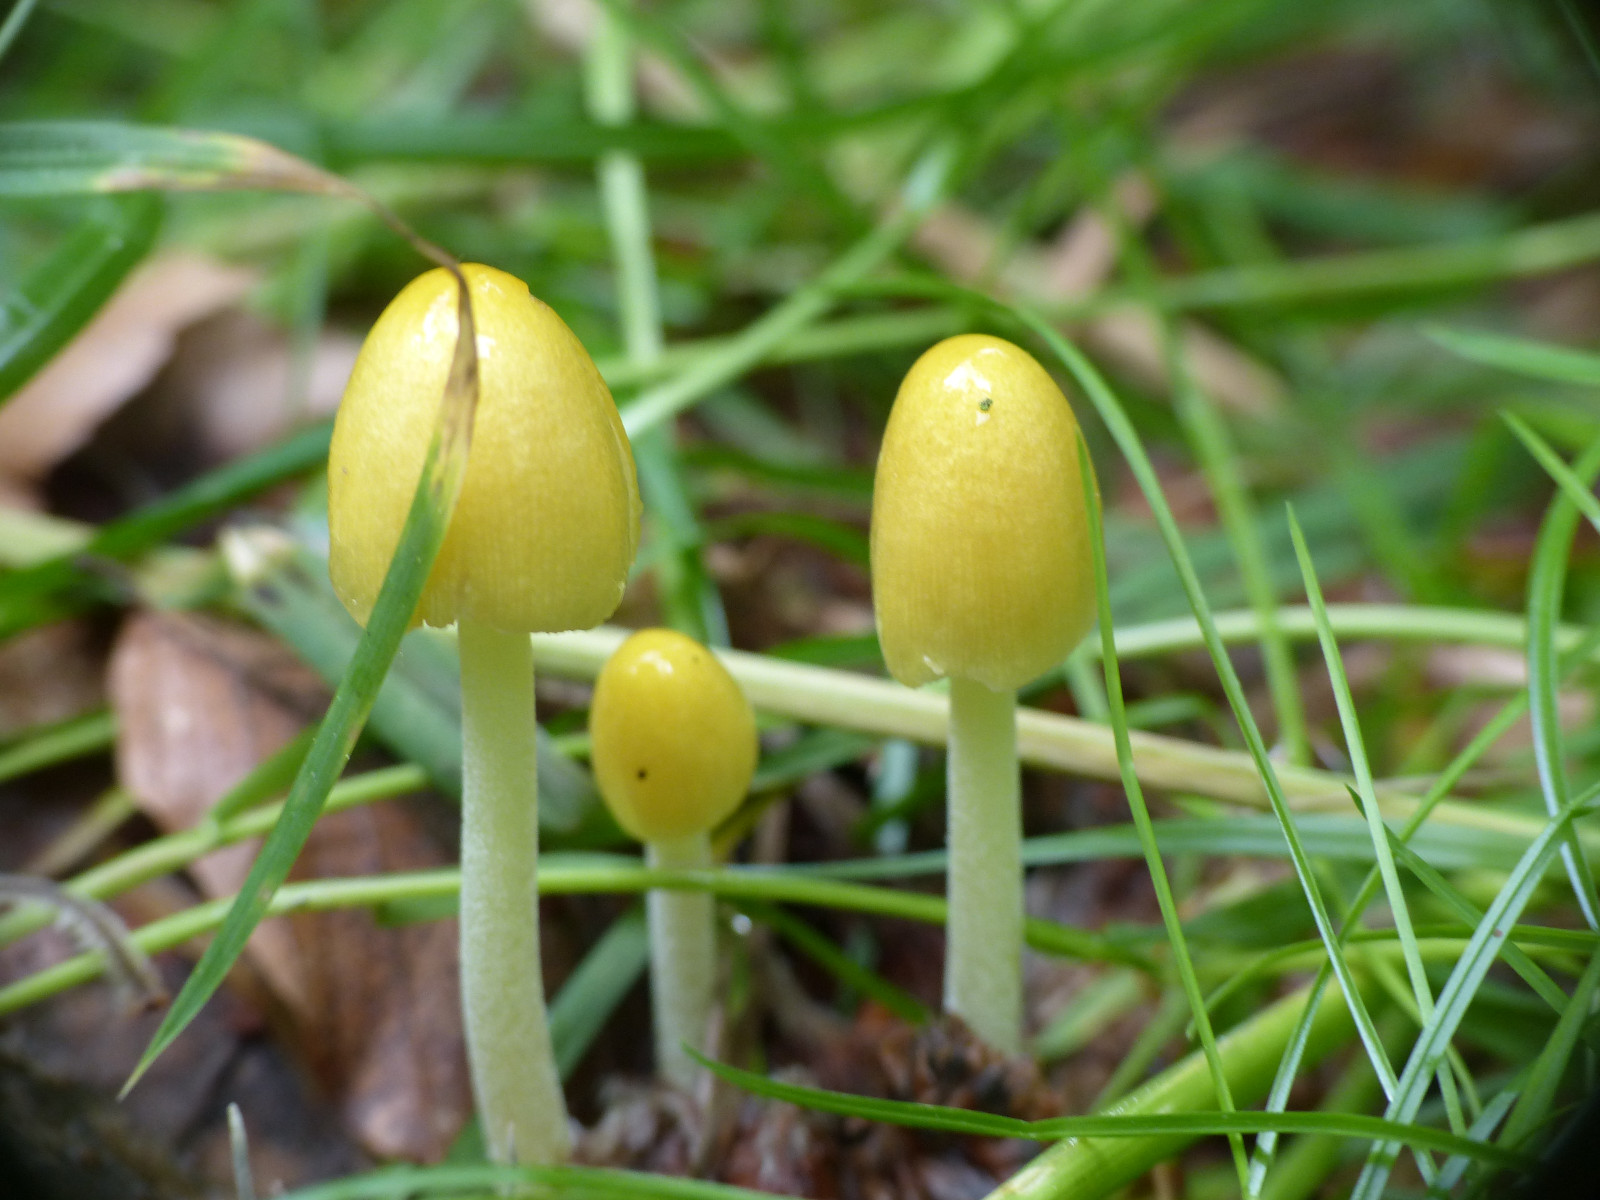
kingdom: Fungi
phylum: Basidiomycota
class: Agaricomycetes
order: Agaricales
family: Bolbitiaceae
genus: Bolbitius
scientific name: Bolbitius titubans
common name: almindelig gulhat
